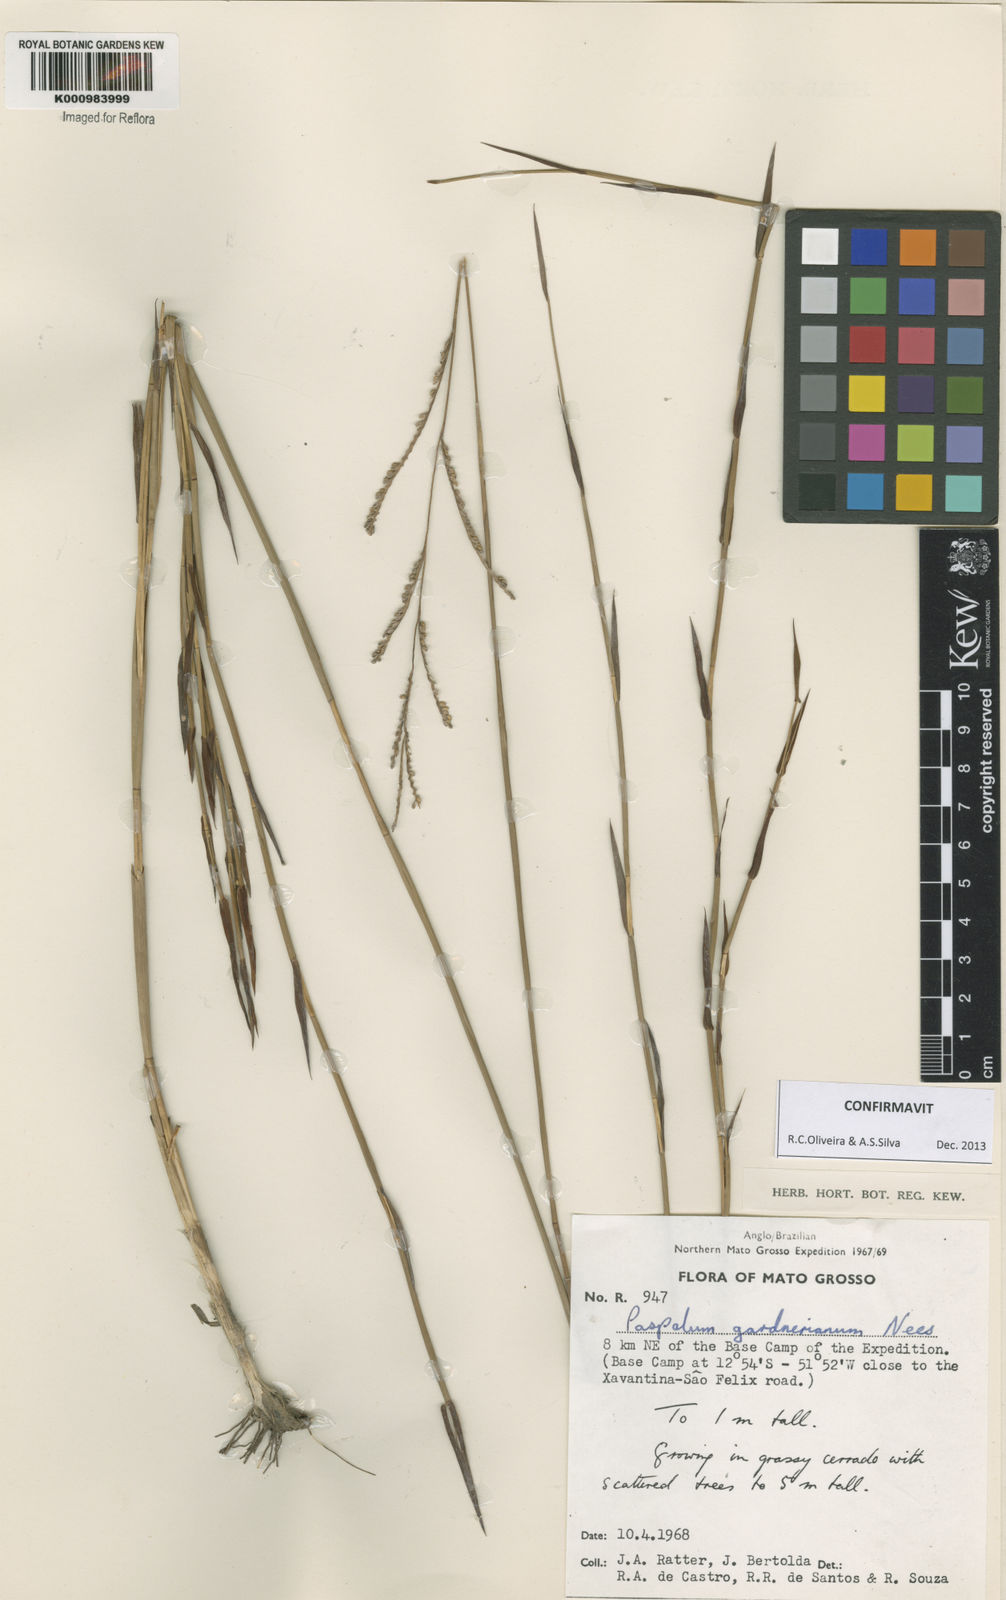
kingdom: Plantae
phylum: Tracheophyta
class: Liliopsida
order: Poales
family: Poaceae
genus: Paspalum
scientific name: Paspalum gardnerianum
